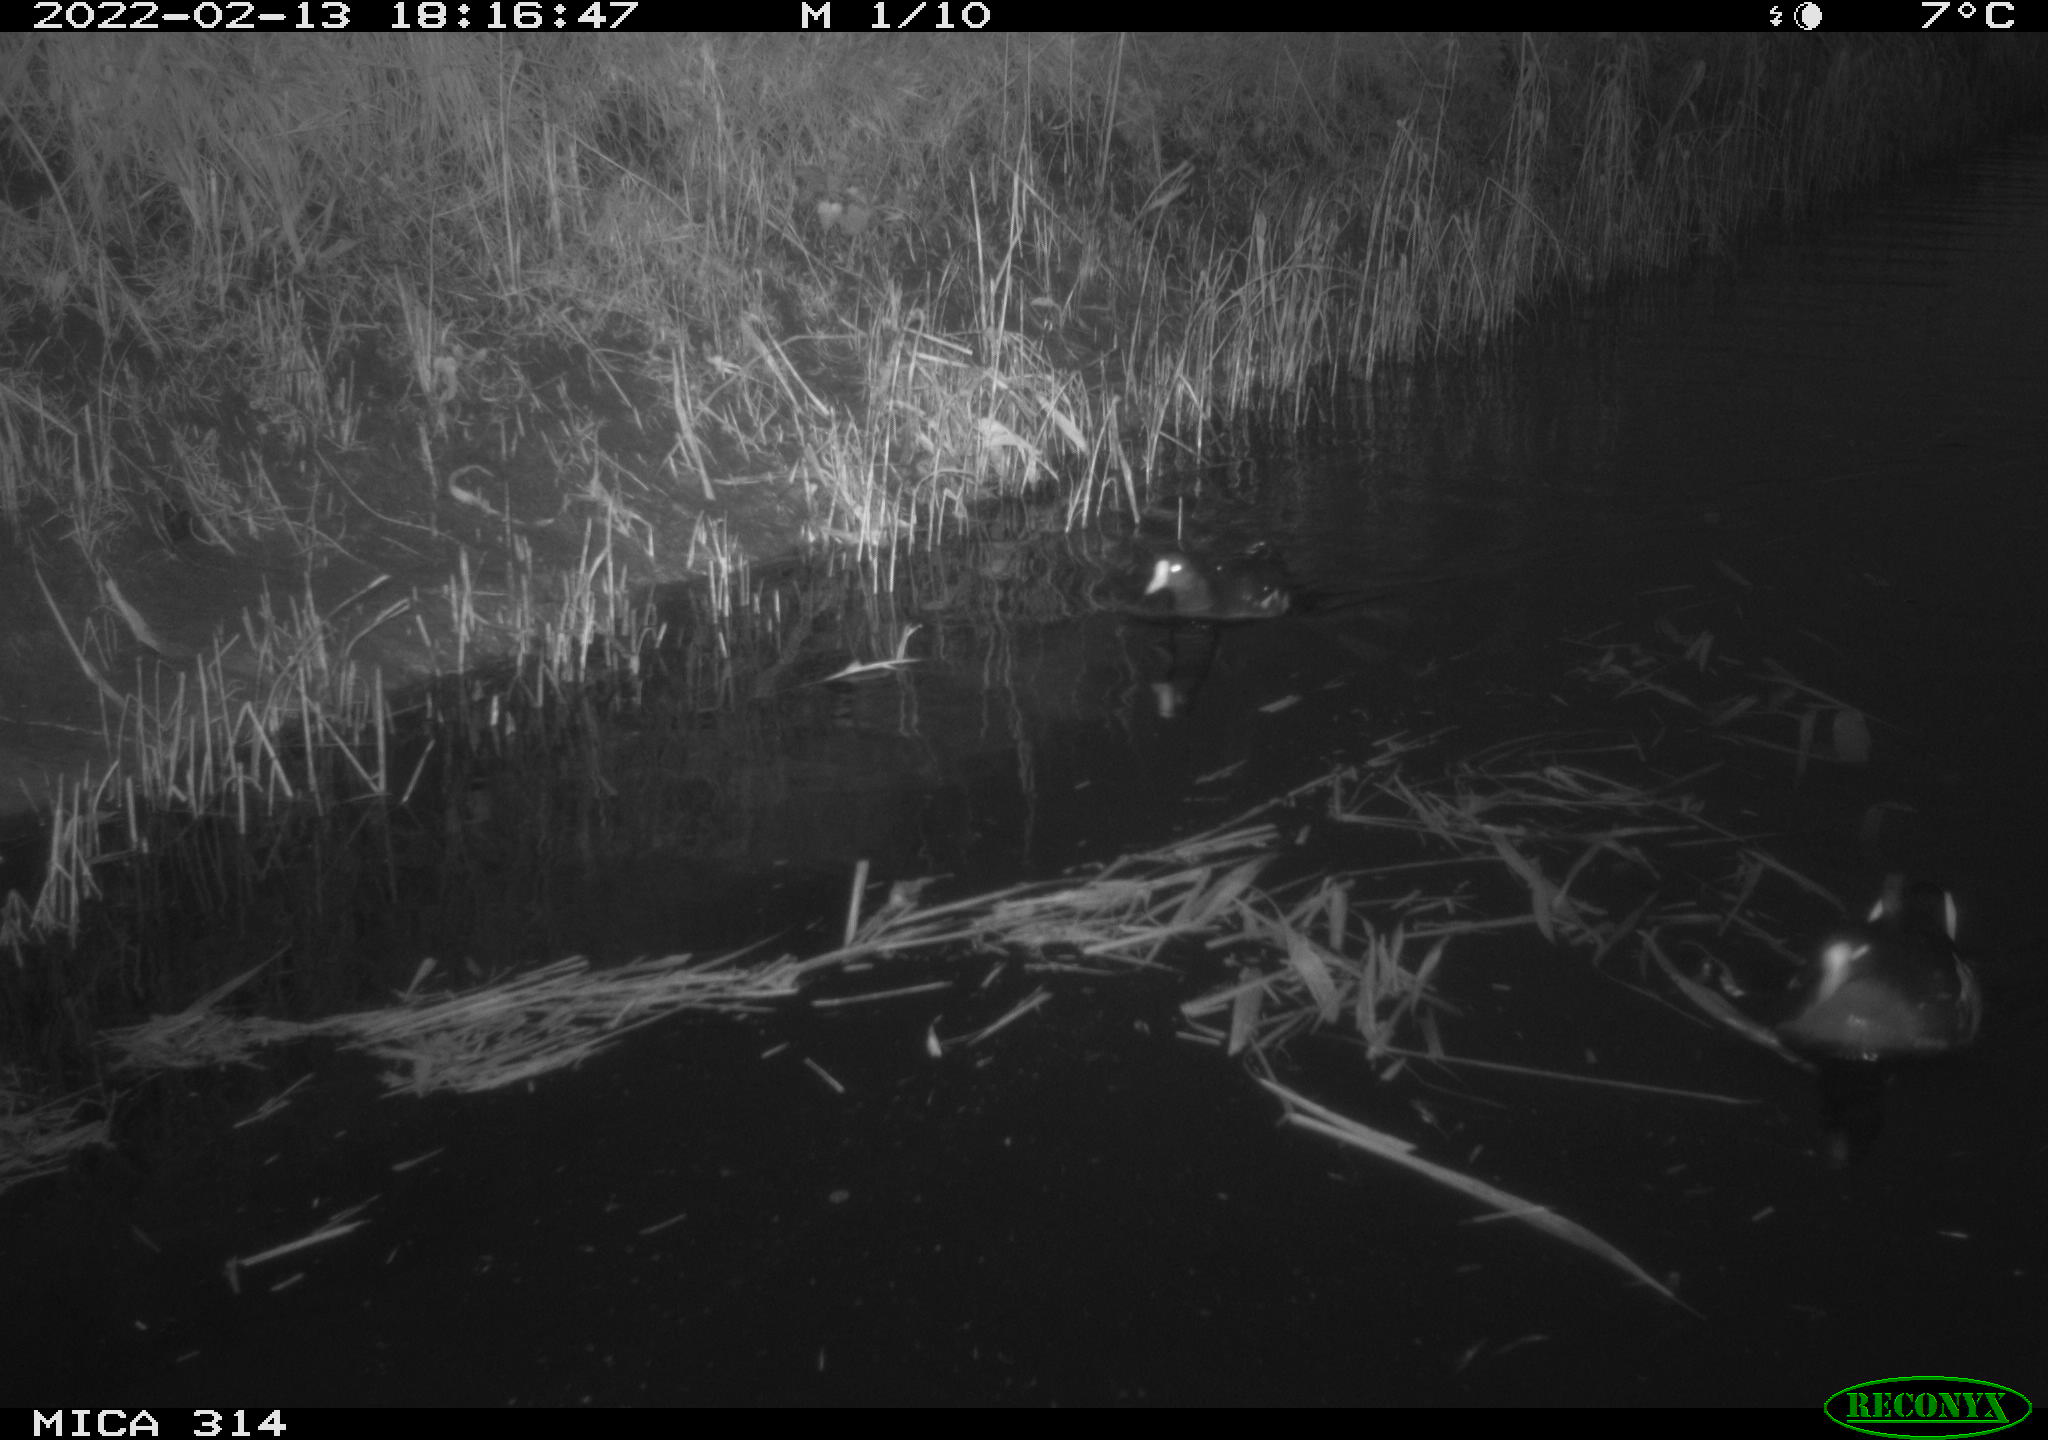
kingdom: Animalia
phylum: Chordata
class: Aves
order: Gruiformes
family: Rallidae
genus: Gallinula
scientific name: Gallinula chloropus
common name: Common moorhen
